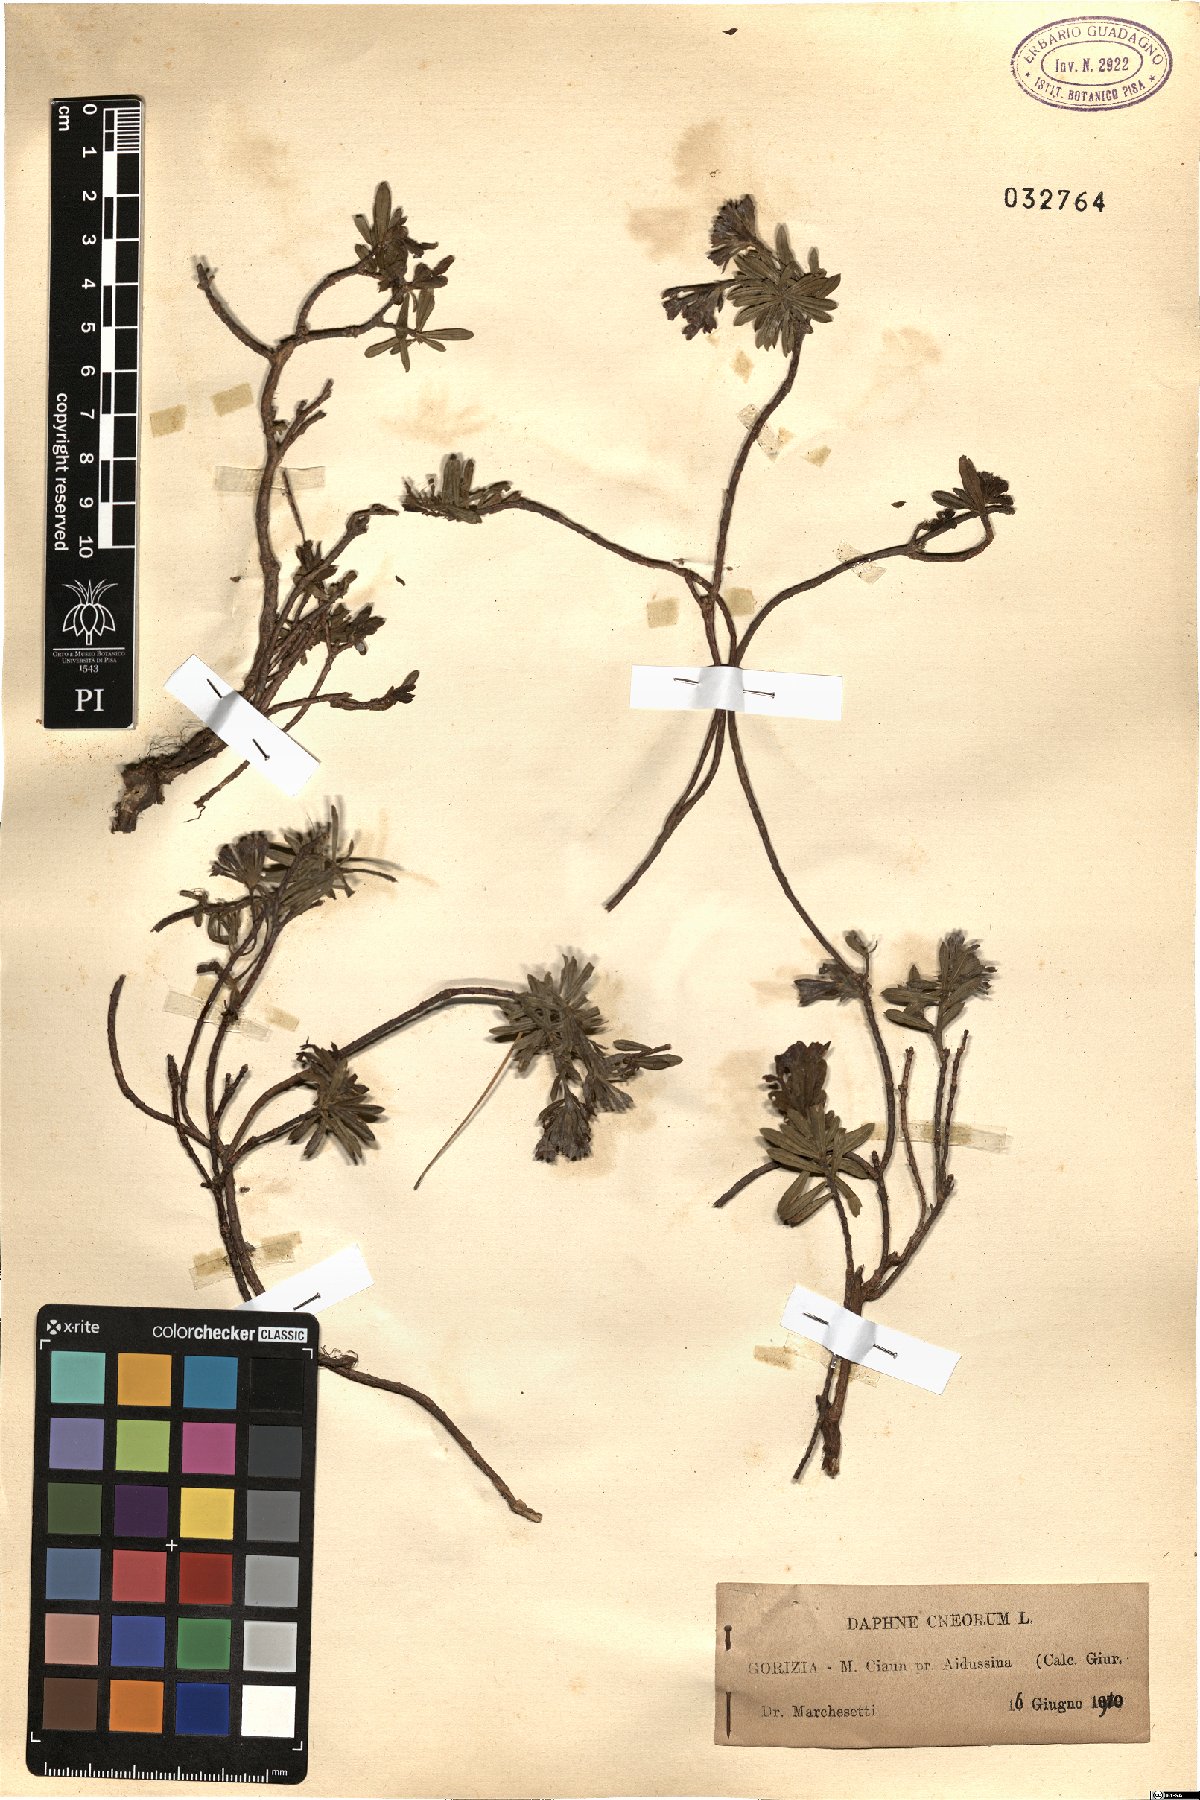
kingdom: Plantae
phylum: Tracheophyta
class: Magnoliopsida
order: Malvales
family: Thymelaeaceae
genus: Daphne
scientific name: Daphne cneorum
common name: Garland-flower
